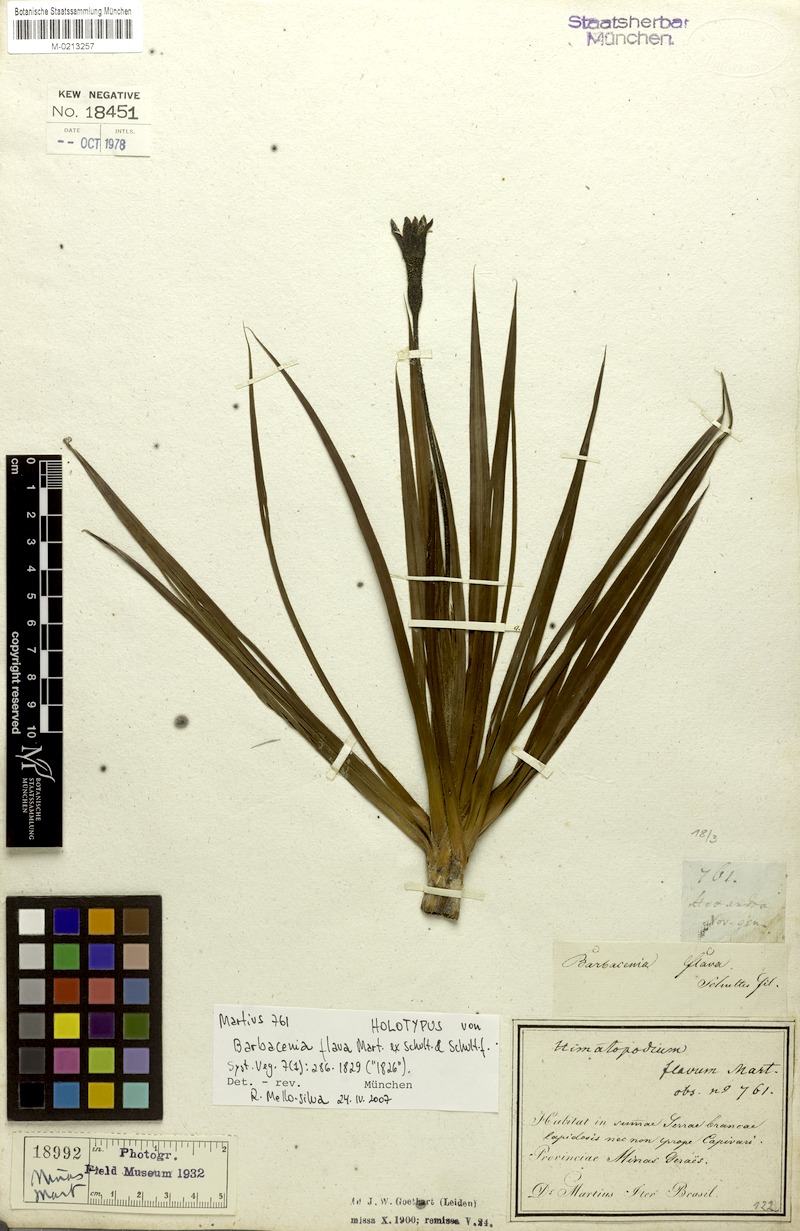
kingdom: Plantae
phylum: Tracheophyta
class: Liliopsida
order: Pandanales
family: Velloziaceae
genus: Barbacenia
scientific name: Barbacenia flava
